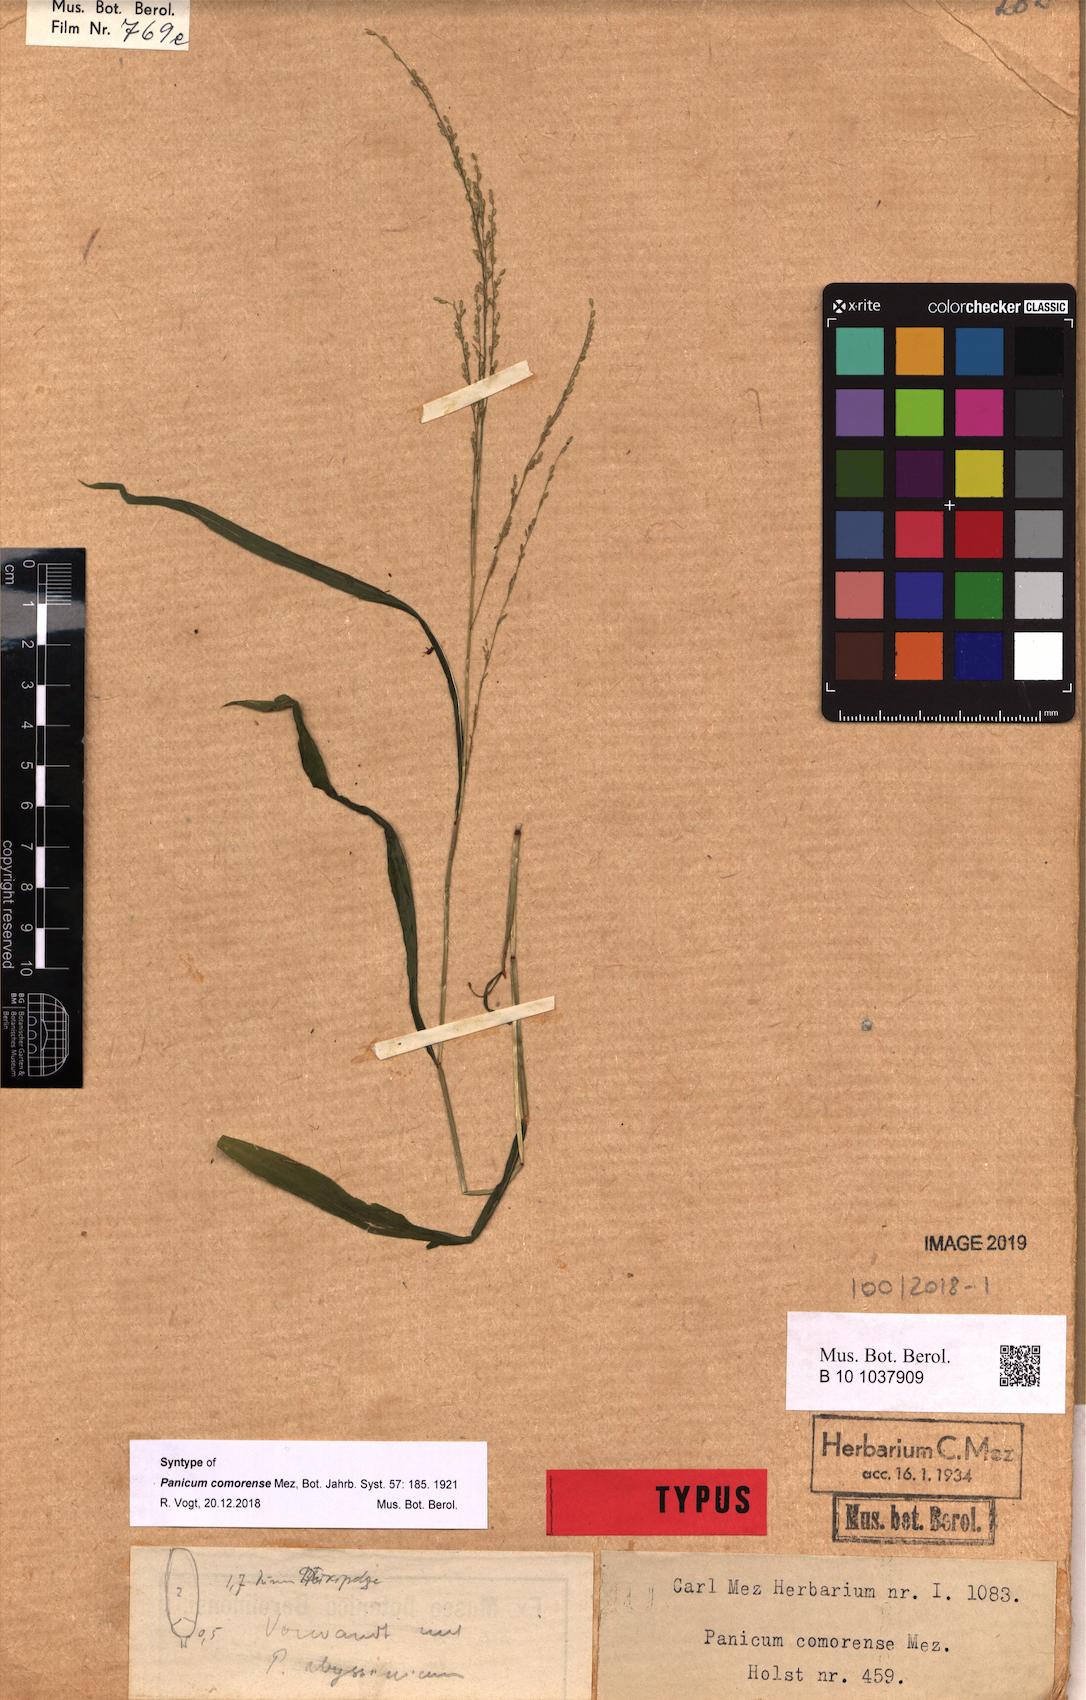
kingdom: Plantae
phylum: Tracheophyta
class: Liliopsida
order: Poales
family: Poaceae
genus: Panicum
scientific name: Panicum comorense
